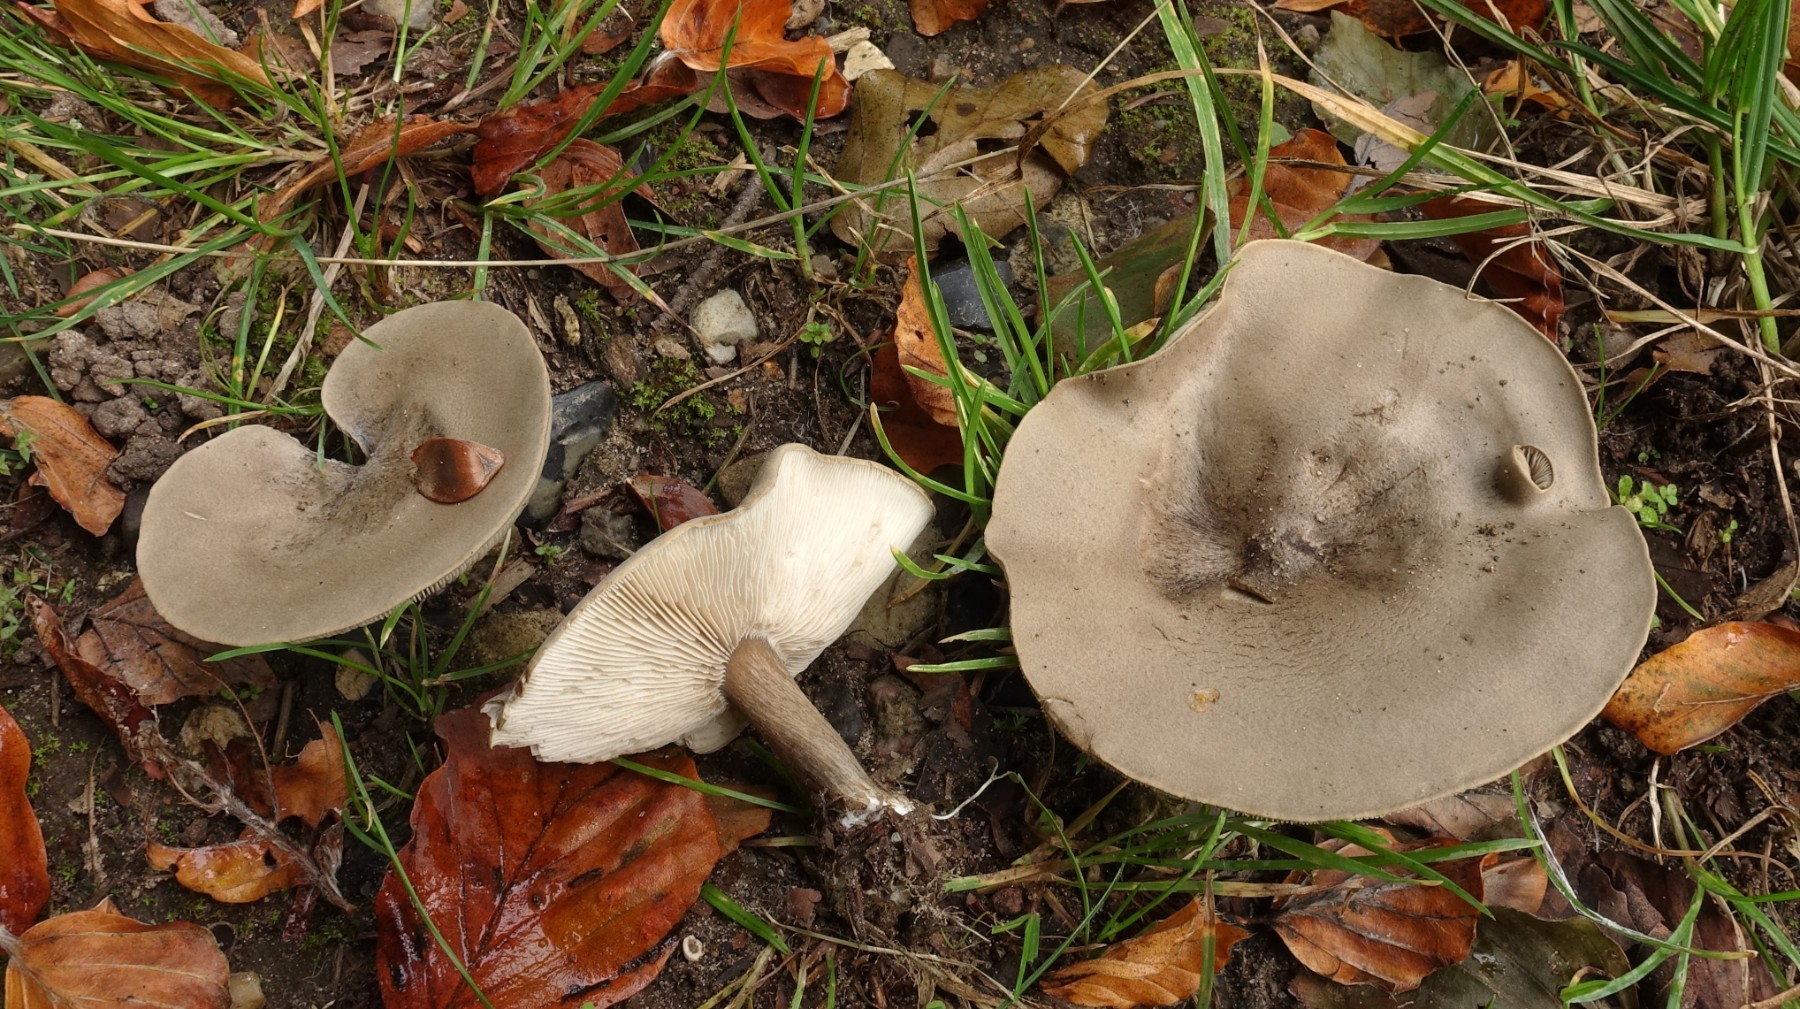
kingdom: Fungi
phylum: Basidiomycota
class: Agaricomycetes
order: Agaricales
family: Tricholomataceae
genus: Melanoleuca
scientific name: Melanoleuca grammopodia
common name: stribestokket munkehat
